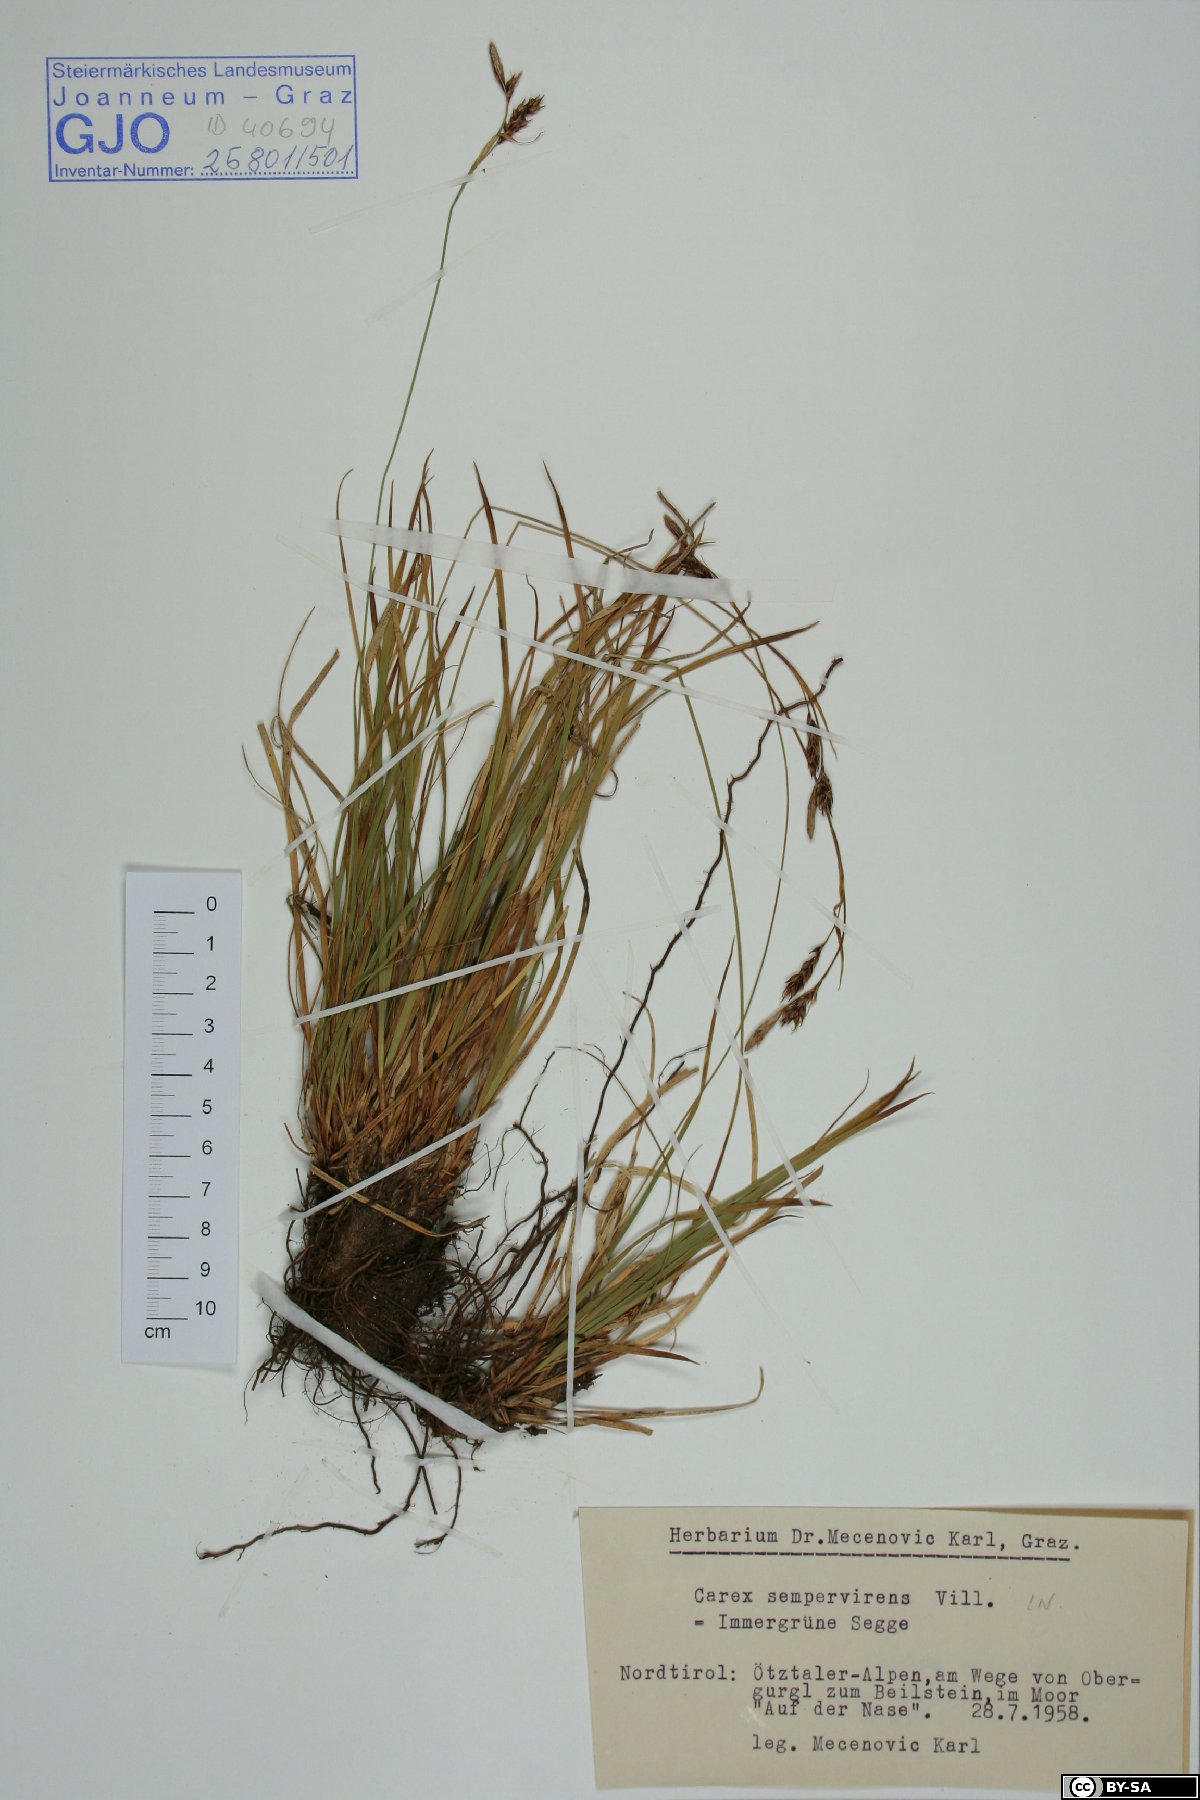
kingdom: Plantae
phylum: Tracheophyta
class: Liliopsida
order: Poales
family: Cyperaceae
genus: Carex
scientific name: Carex sempervirens
